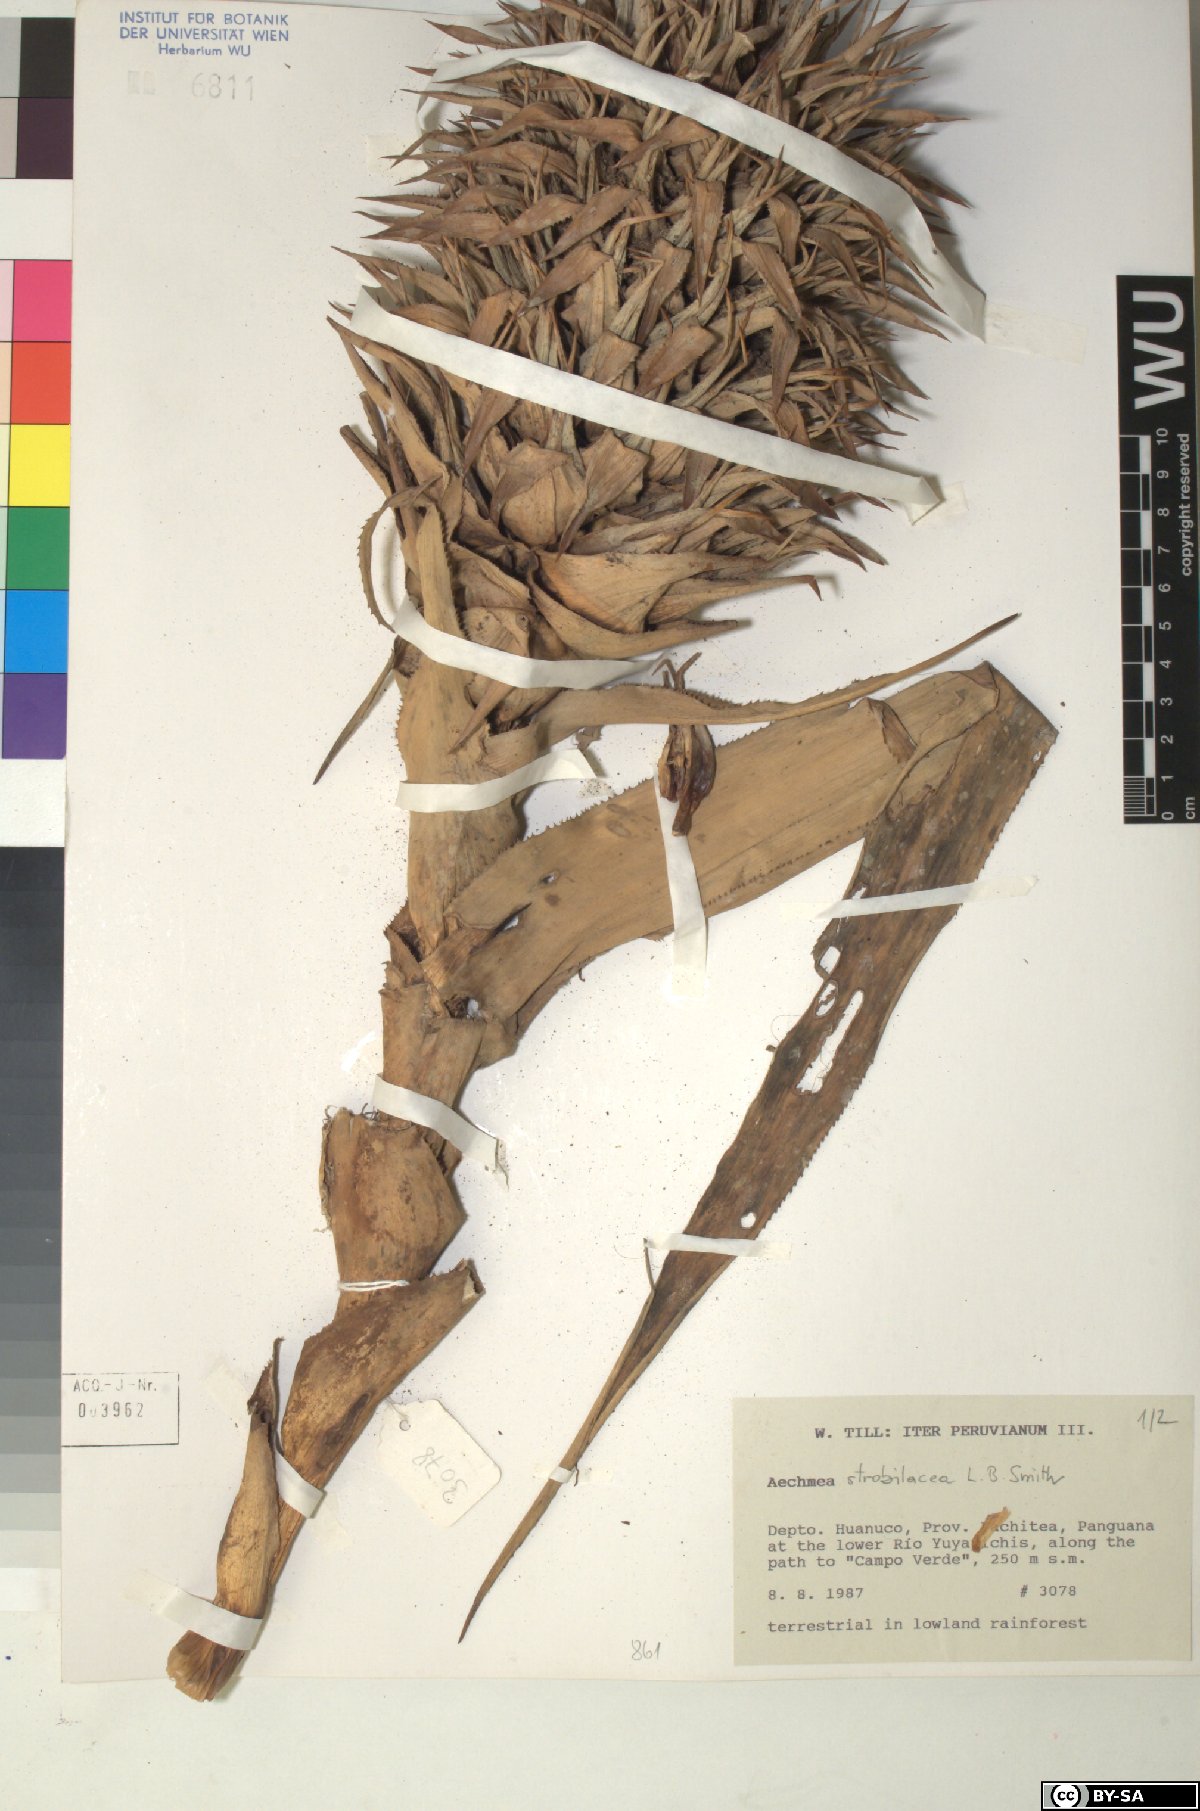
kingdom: Plantae
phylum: Tracheophyta
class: Liliopsida
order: Poales
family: Bromeliaceae
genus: Aechmea
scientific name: Aechmea
